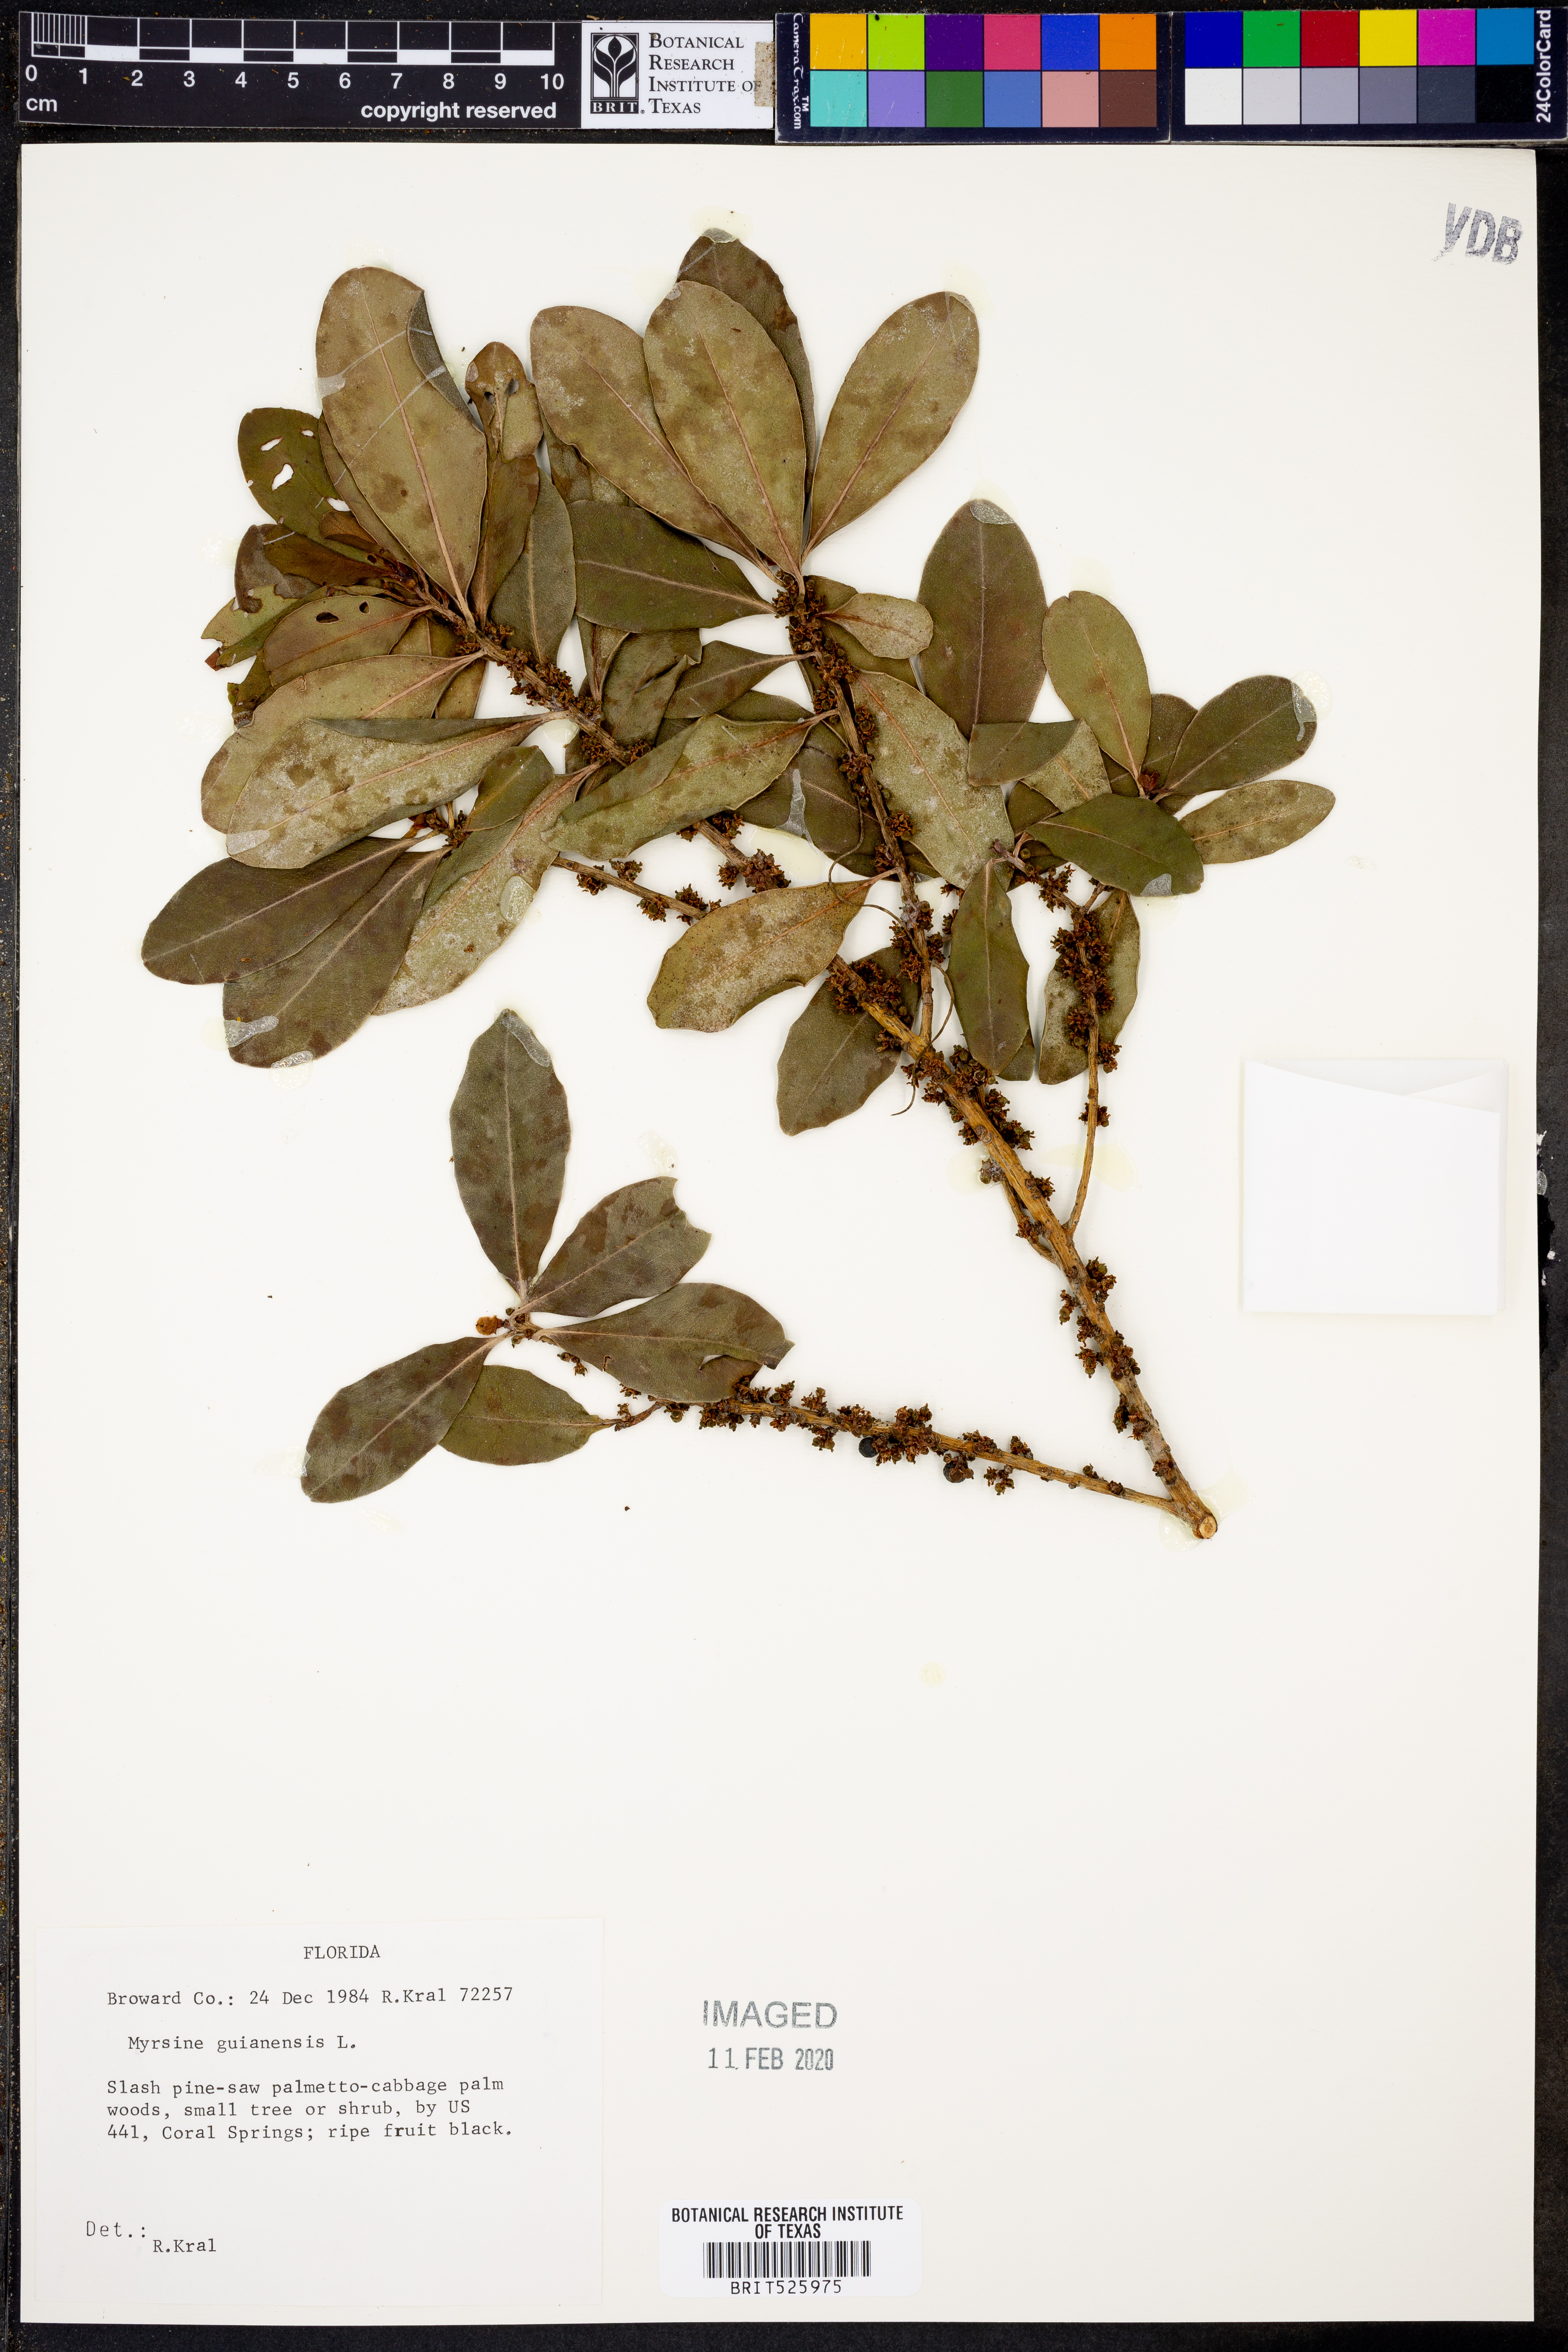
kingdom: Plantae
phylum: Tracheophyta
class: Magnoliopsida
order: Ericales
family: Primulaceae
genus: Myrsine
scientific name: Myrsine guianensis
